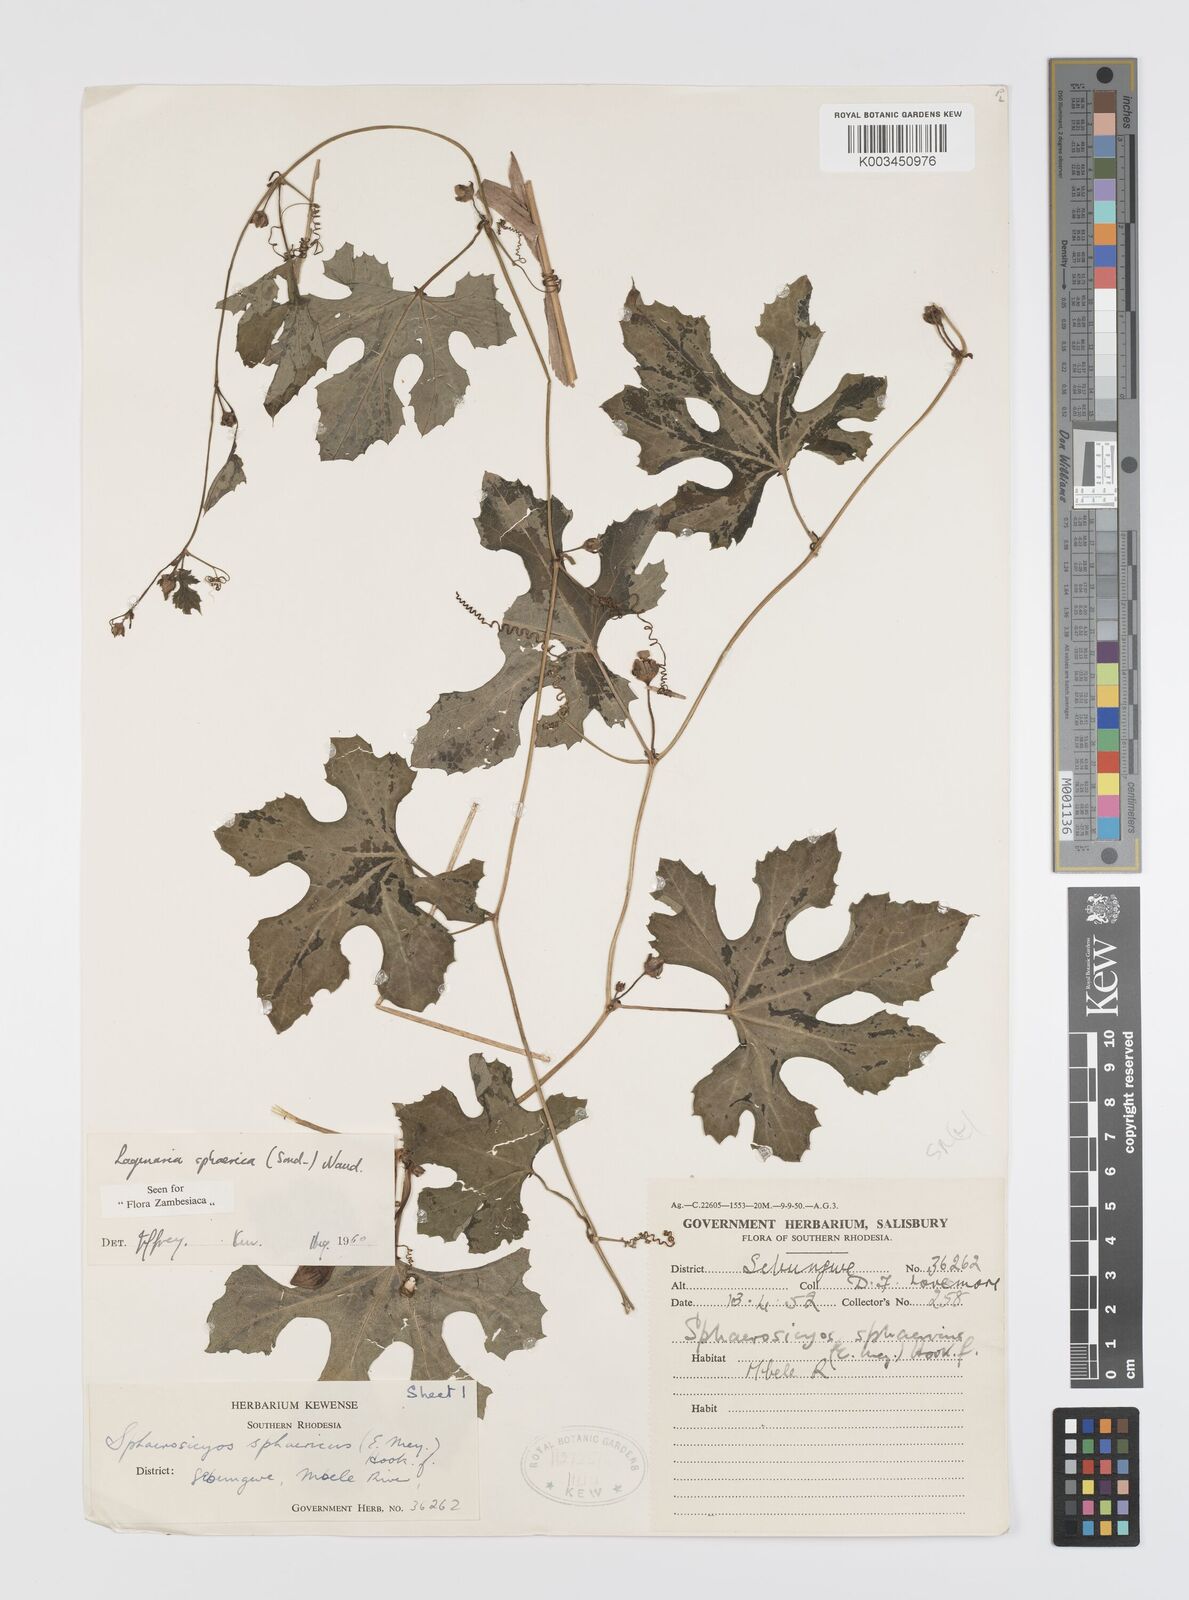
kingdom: Plantae
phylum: Tracheophyta
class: Magnoliopsida
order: Cucurbitales
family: Cucurbitaceae
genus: Lagenaria
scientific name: Lagenaria sphaerica
